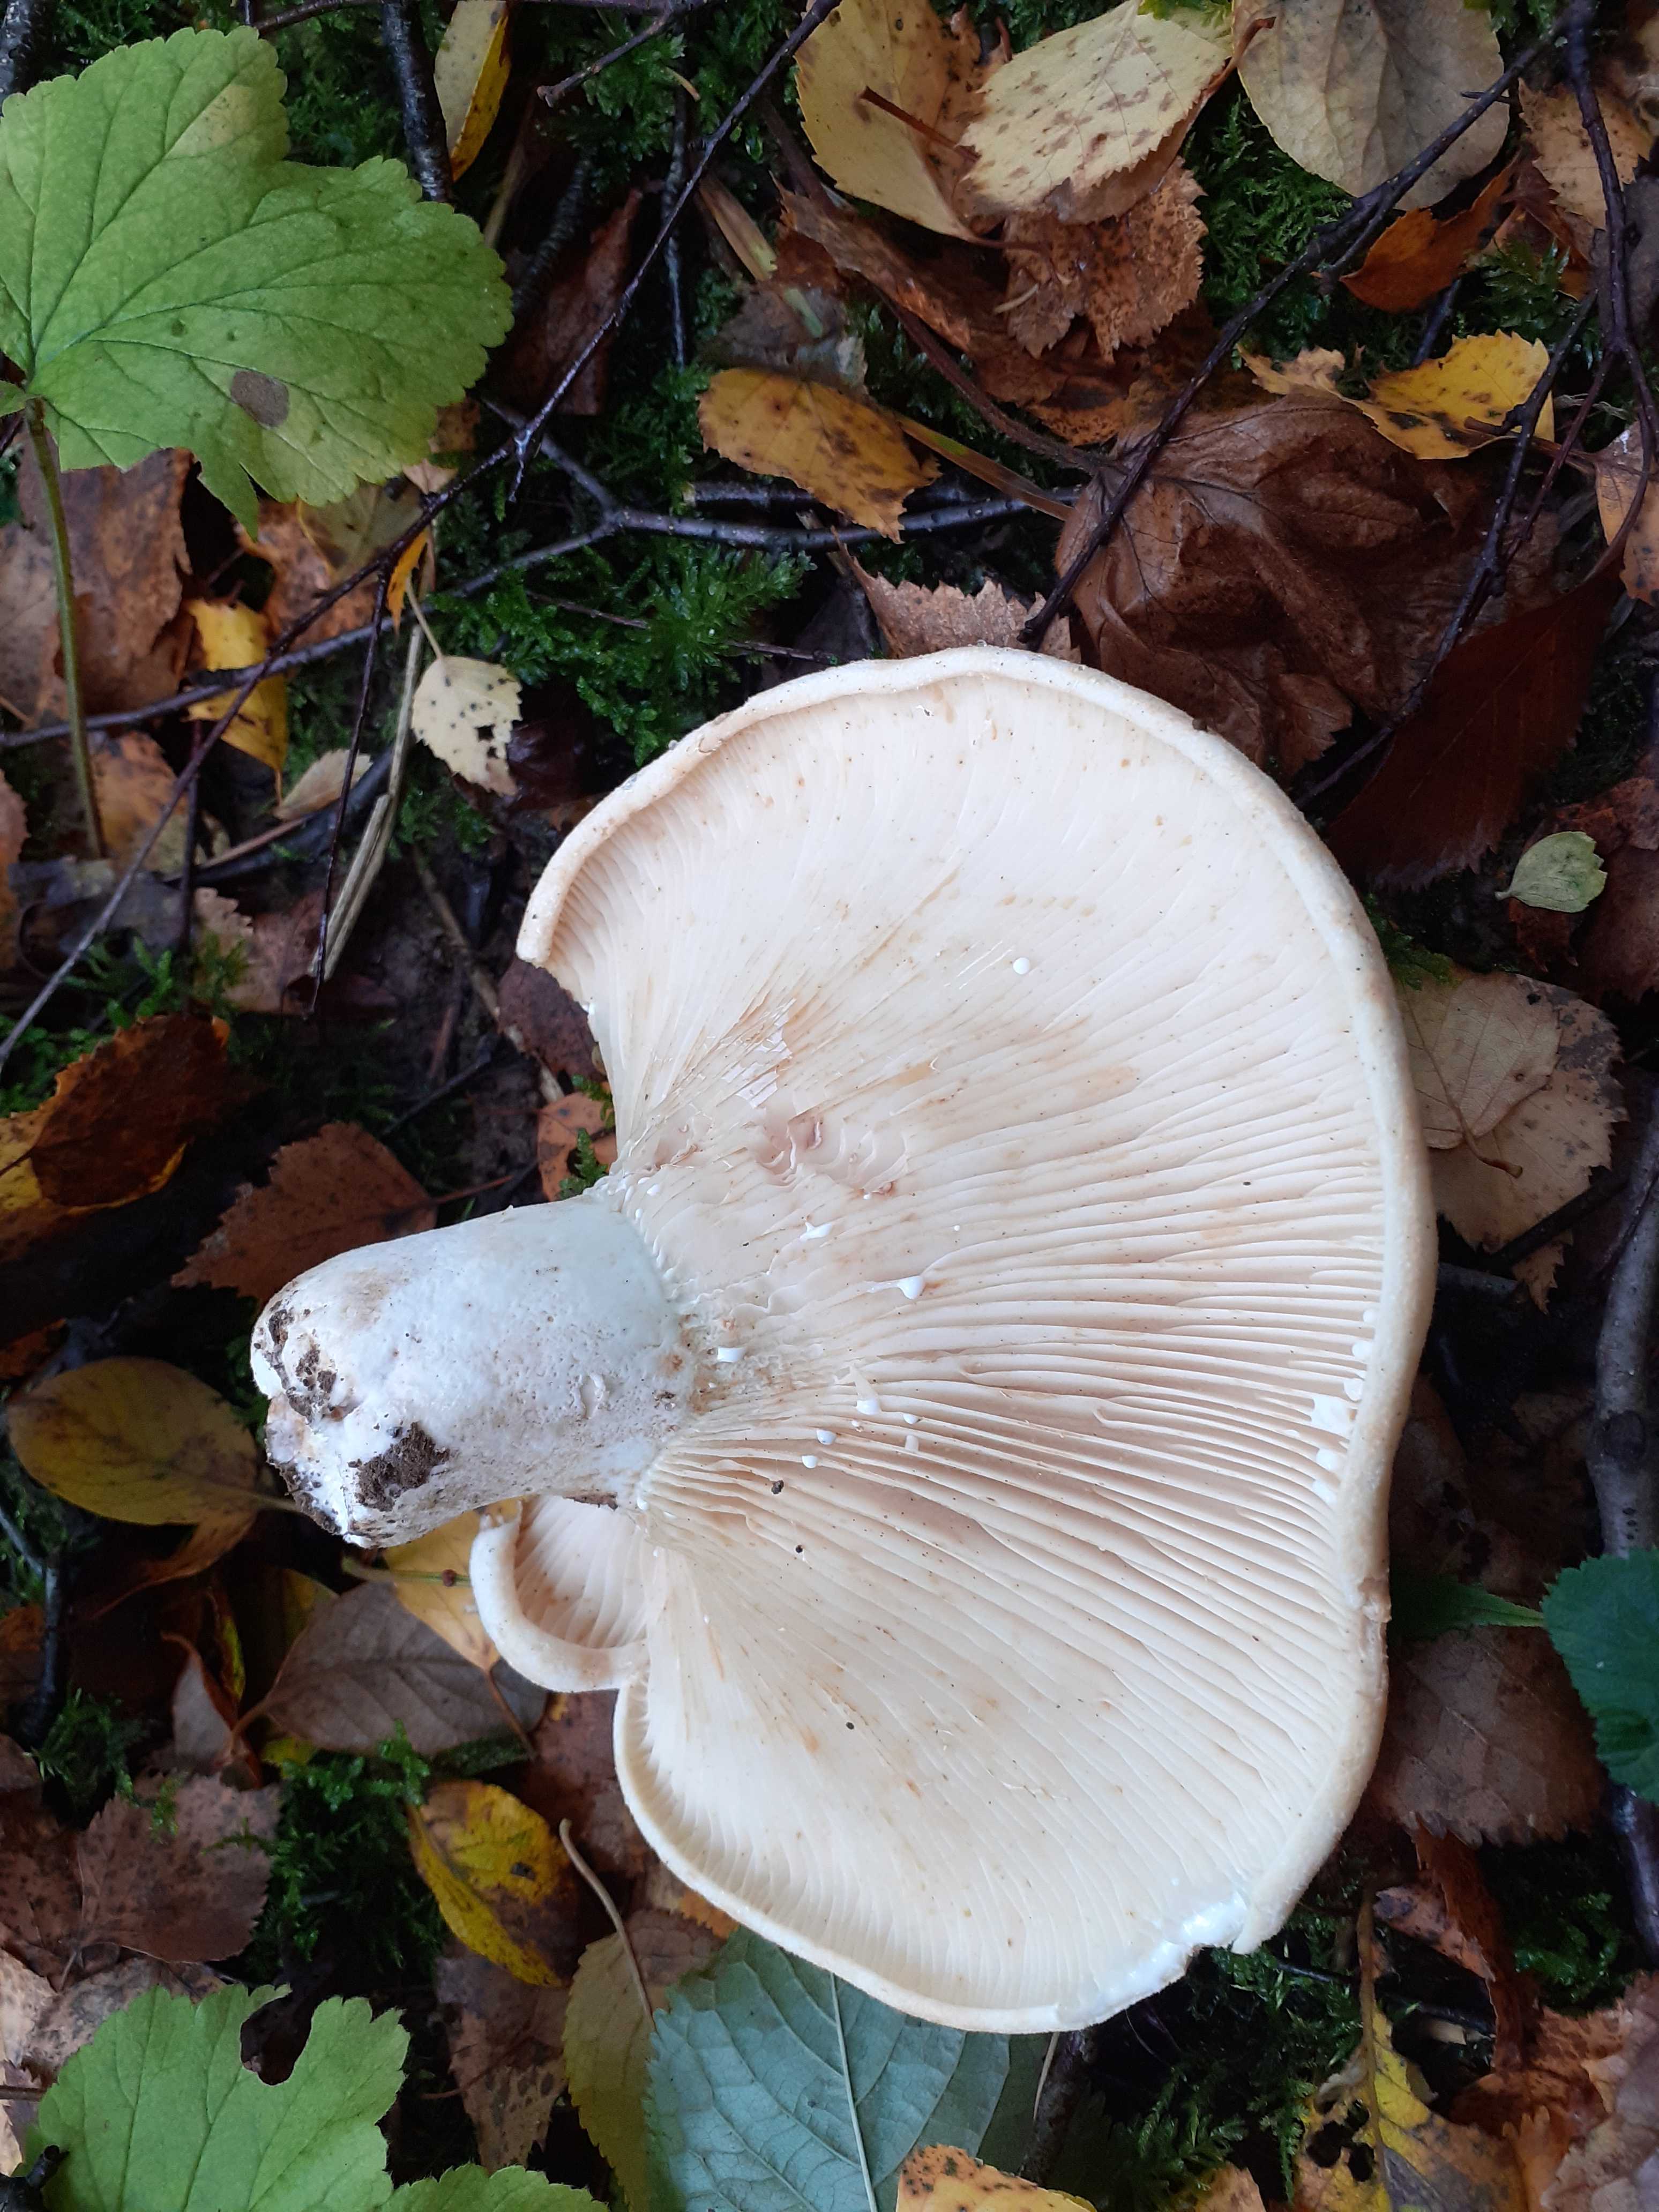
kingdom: Fungi
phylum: Basidiomycota
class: Agaricomycetes
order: Russulales
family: Russulaceae
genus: Lactifluus
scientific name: Lactifluus vellereus
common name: hvidfiltet mælkehat
